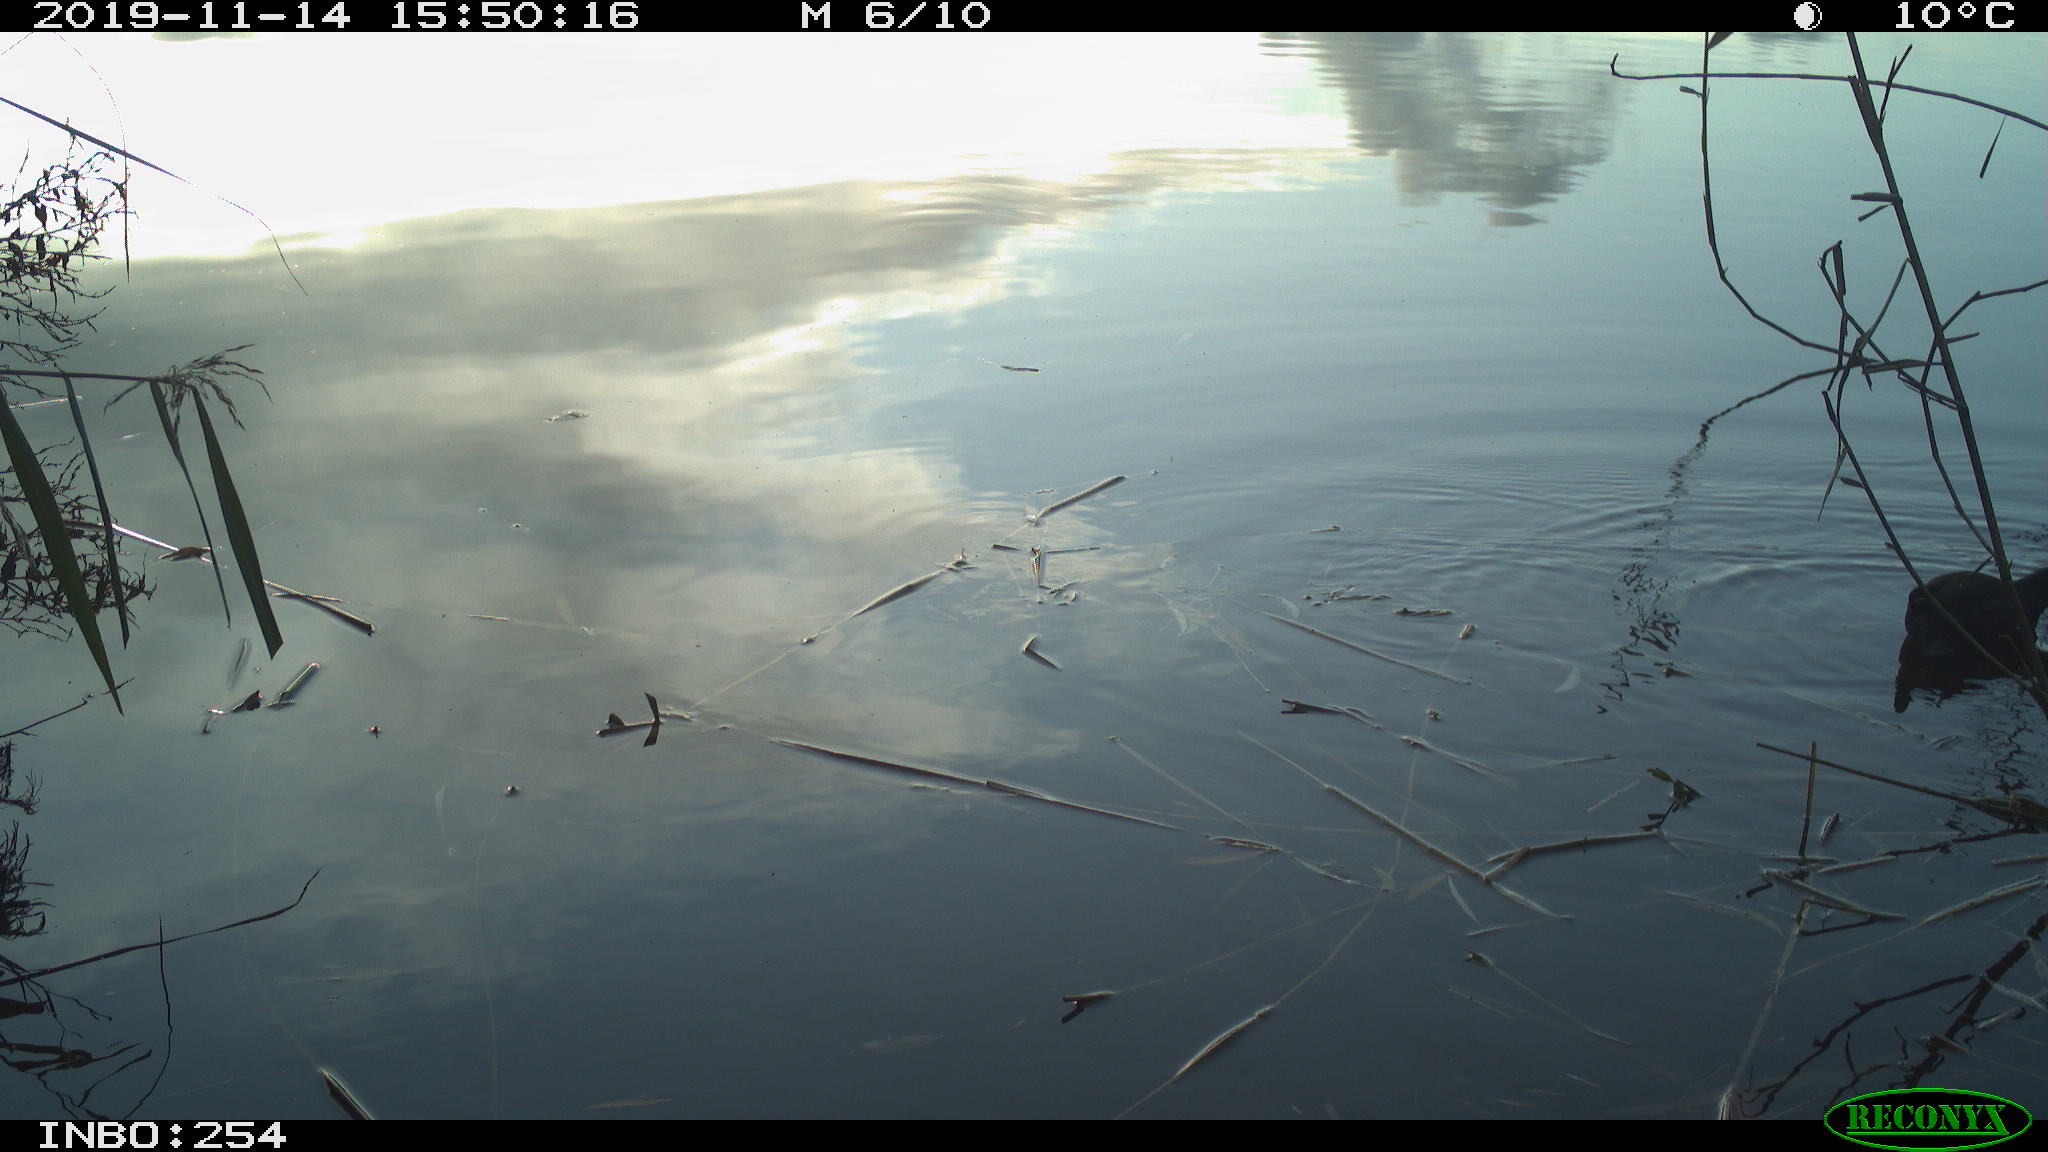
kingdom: Animalia
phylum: Chordata
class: Aves
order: Gruiformes
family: Rallidae
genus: Gallinula
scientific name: Gallinula chloropus
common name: Common moorhen
